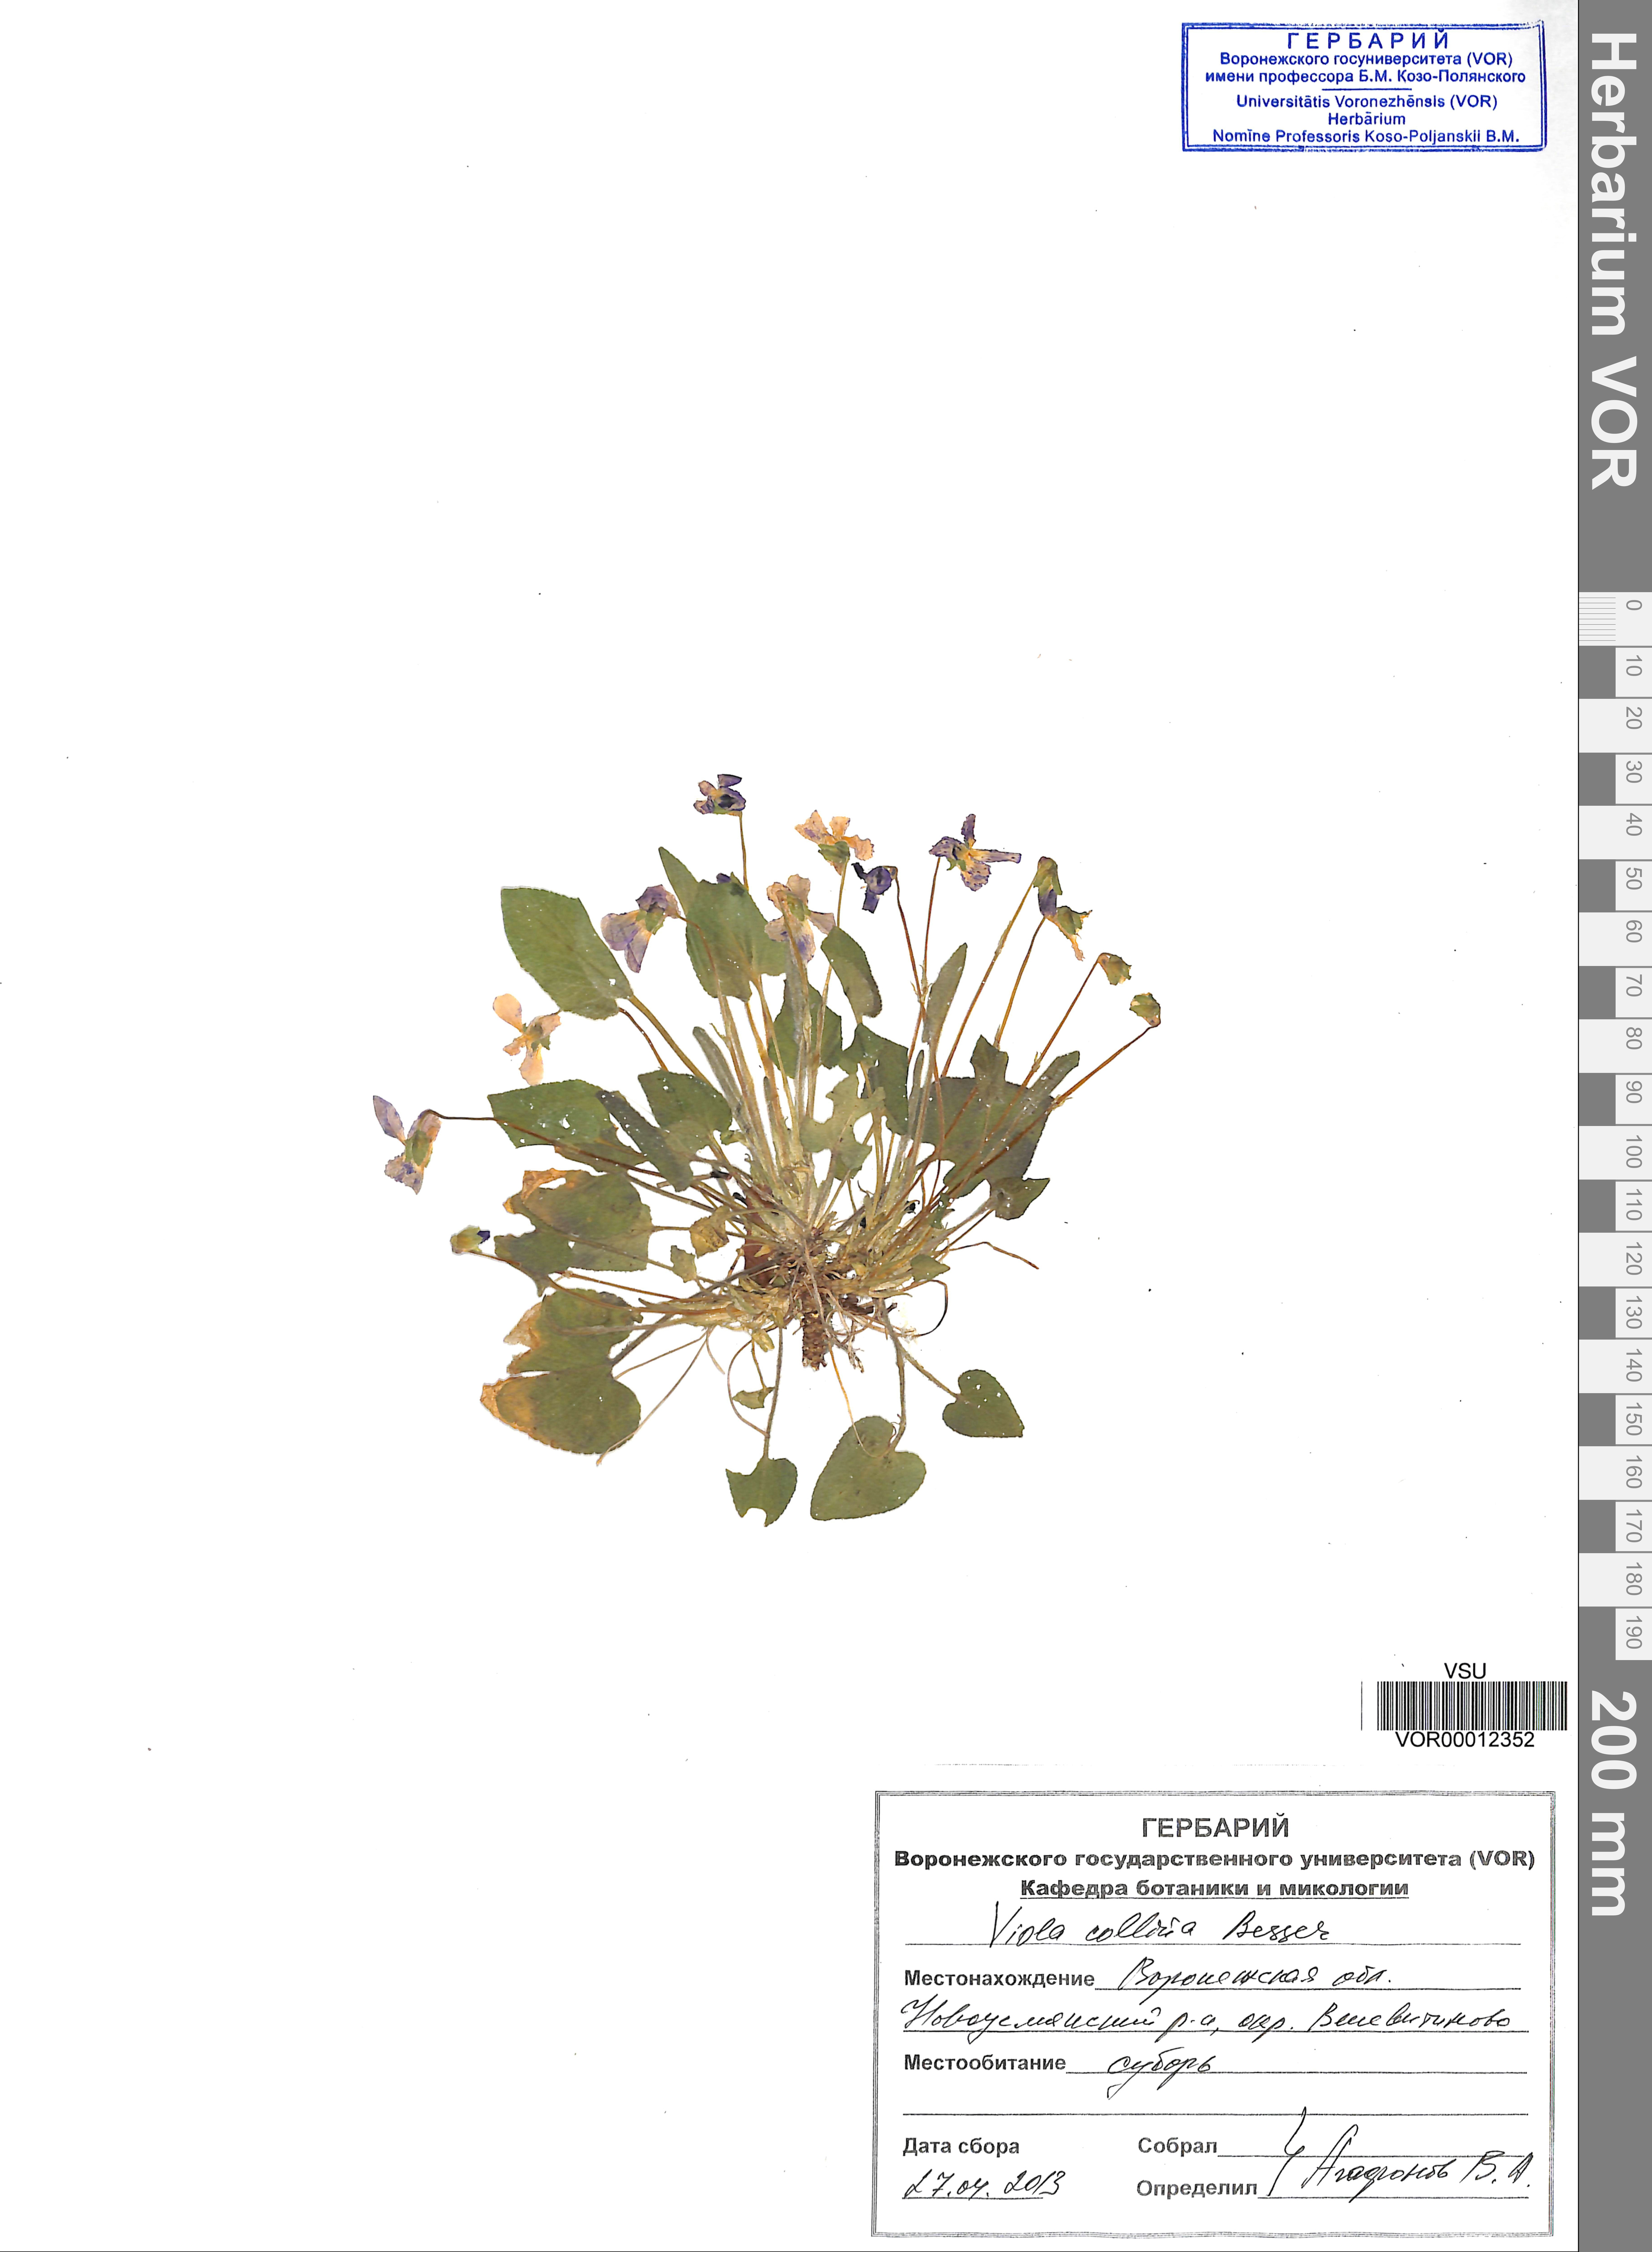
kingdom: Plantae
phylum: Tracheophyta
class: Magnoliopsida
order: Malpighiales
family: Violaceae
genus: Viola
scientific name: Viola collina
